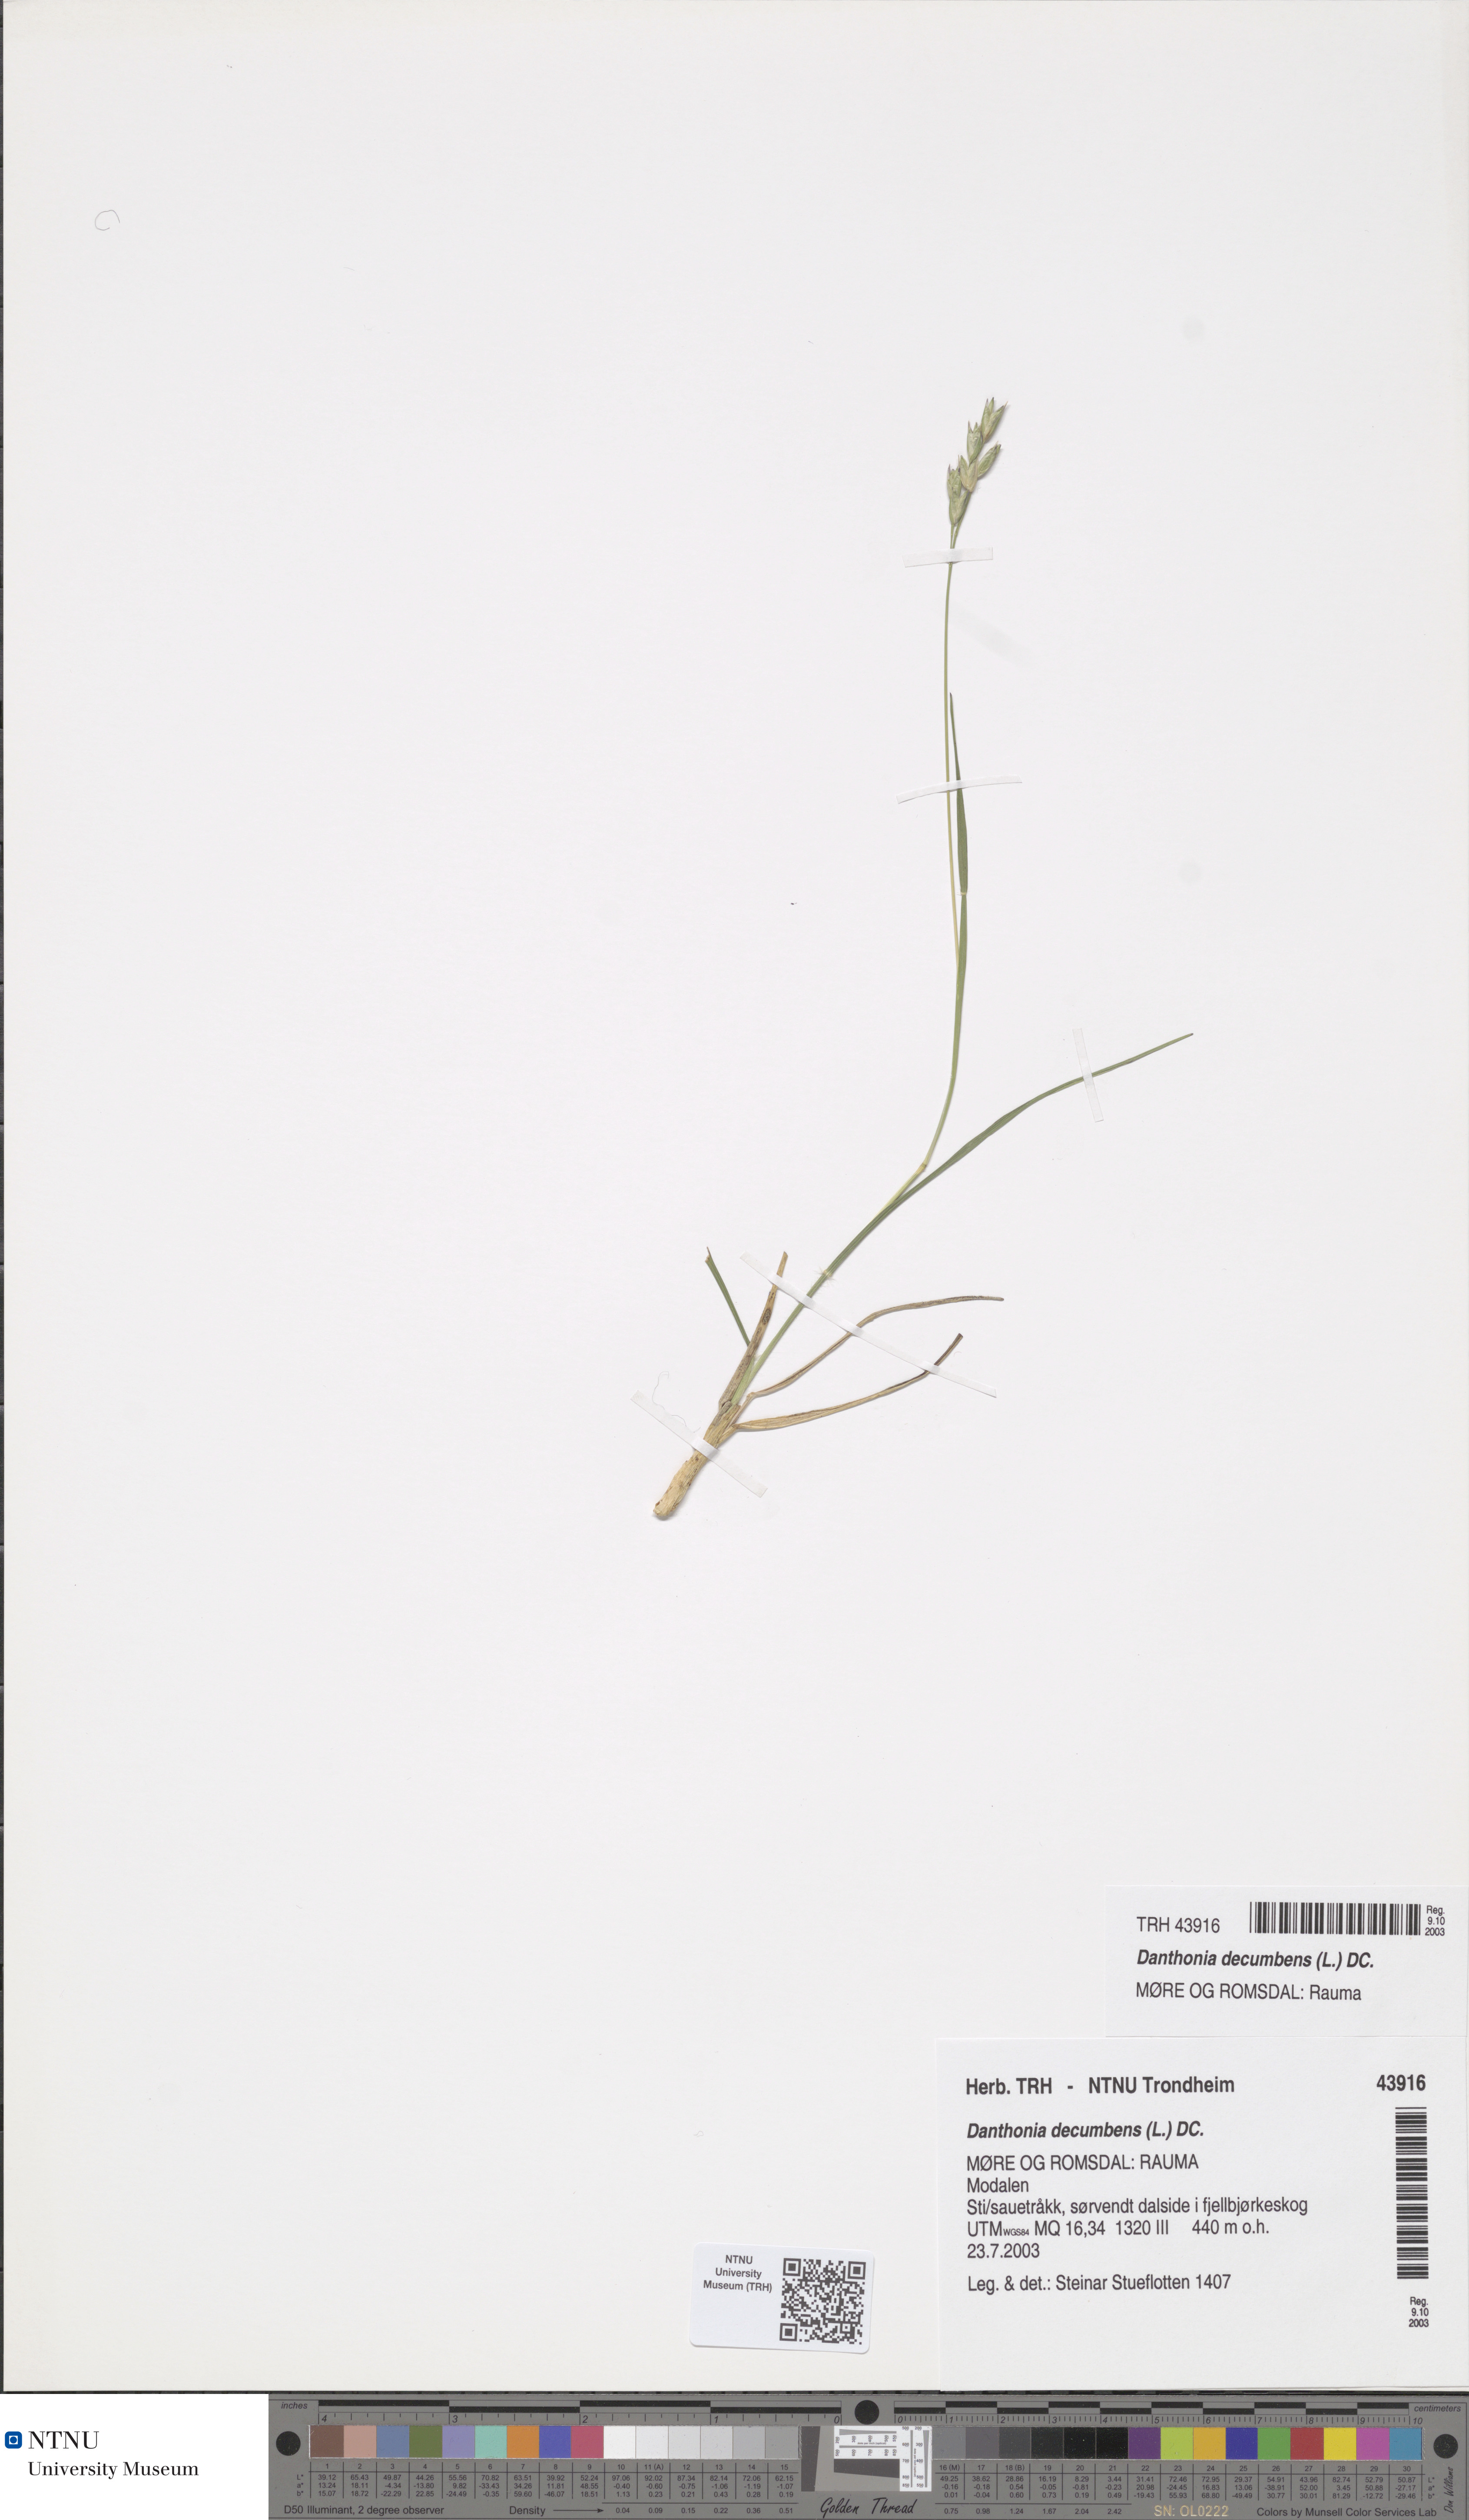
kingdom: Plantae
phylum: Tracheophyta
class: Liliopsida
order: Poales
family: Poaceae
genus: Danthonia
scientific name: Danthonia decumbens
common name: Common heathgrass
